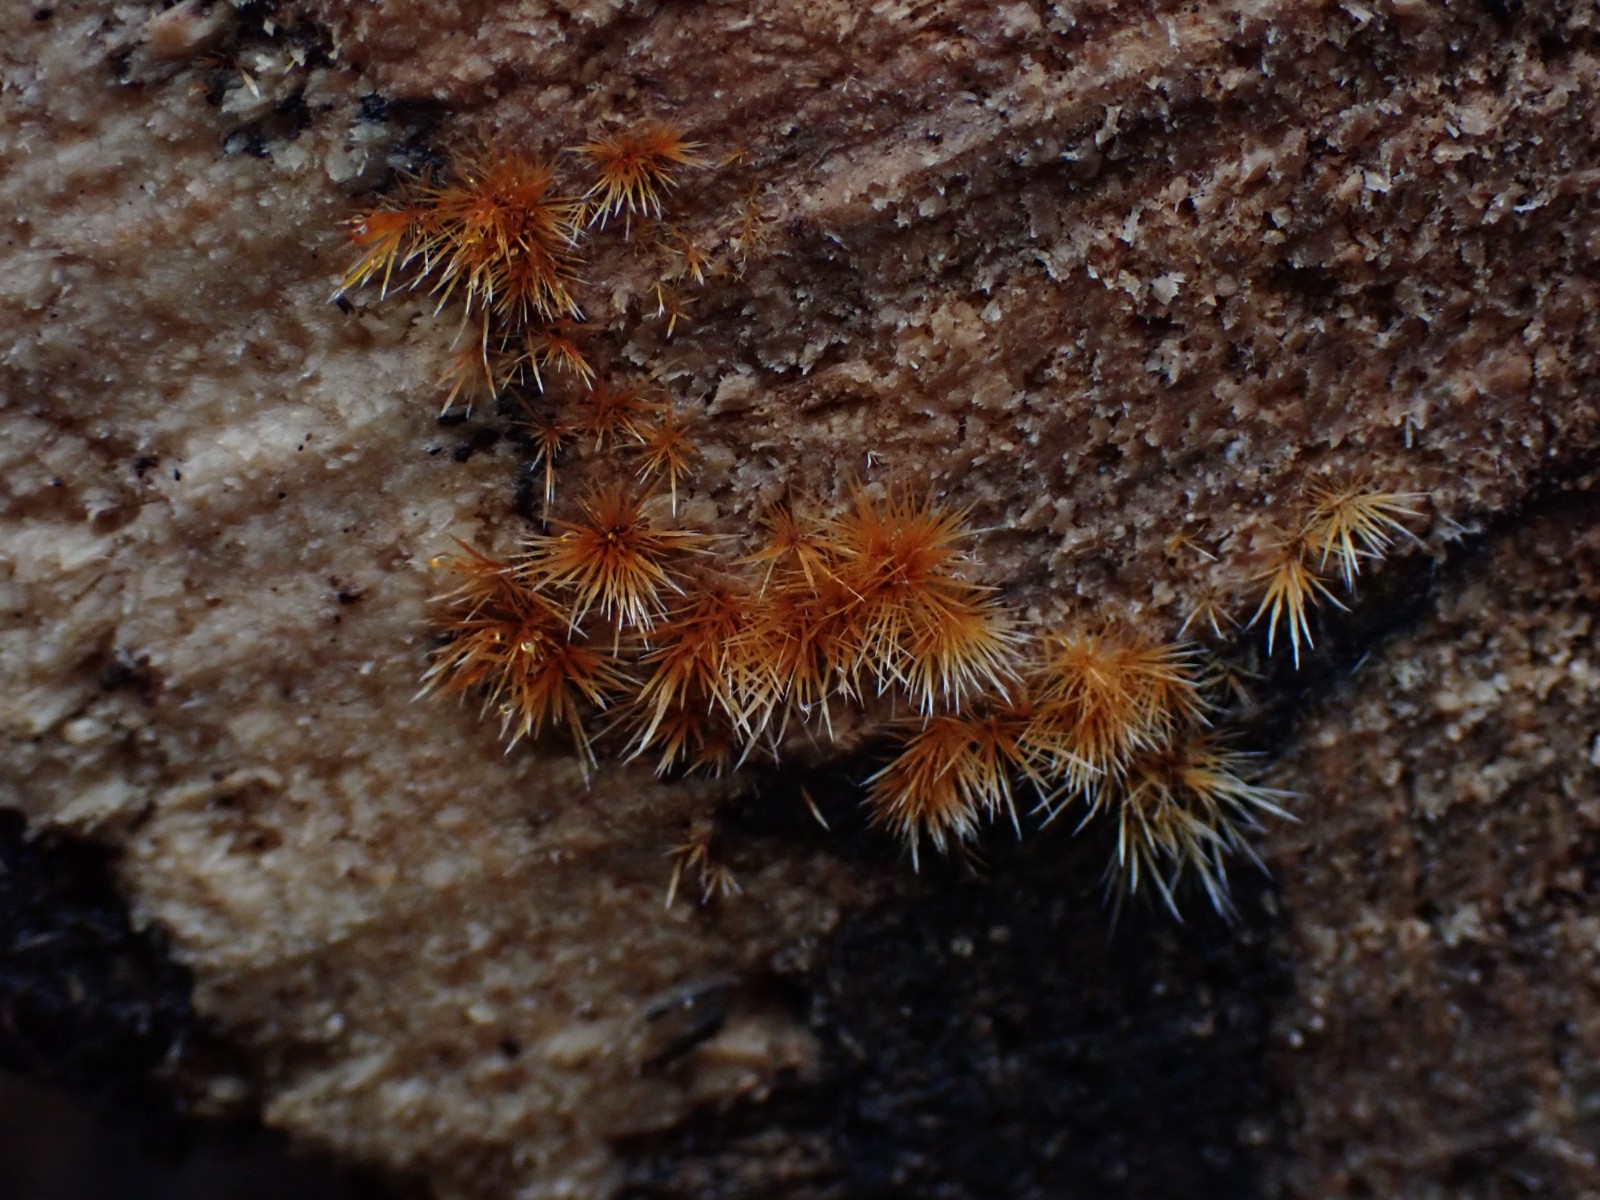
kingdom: Fungi
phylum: Basidiomycota
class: Agaricomycetes
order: Agaricales
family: Psathyrellaceae
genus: Ozonium
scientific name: Ozonium
